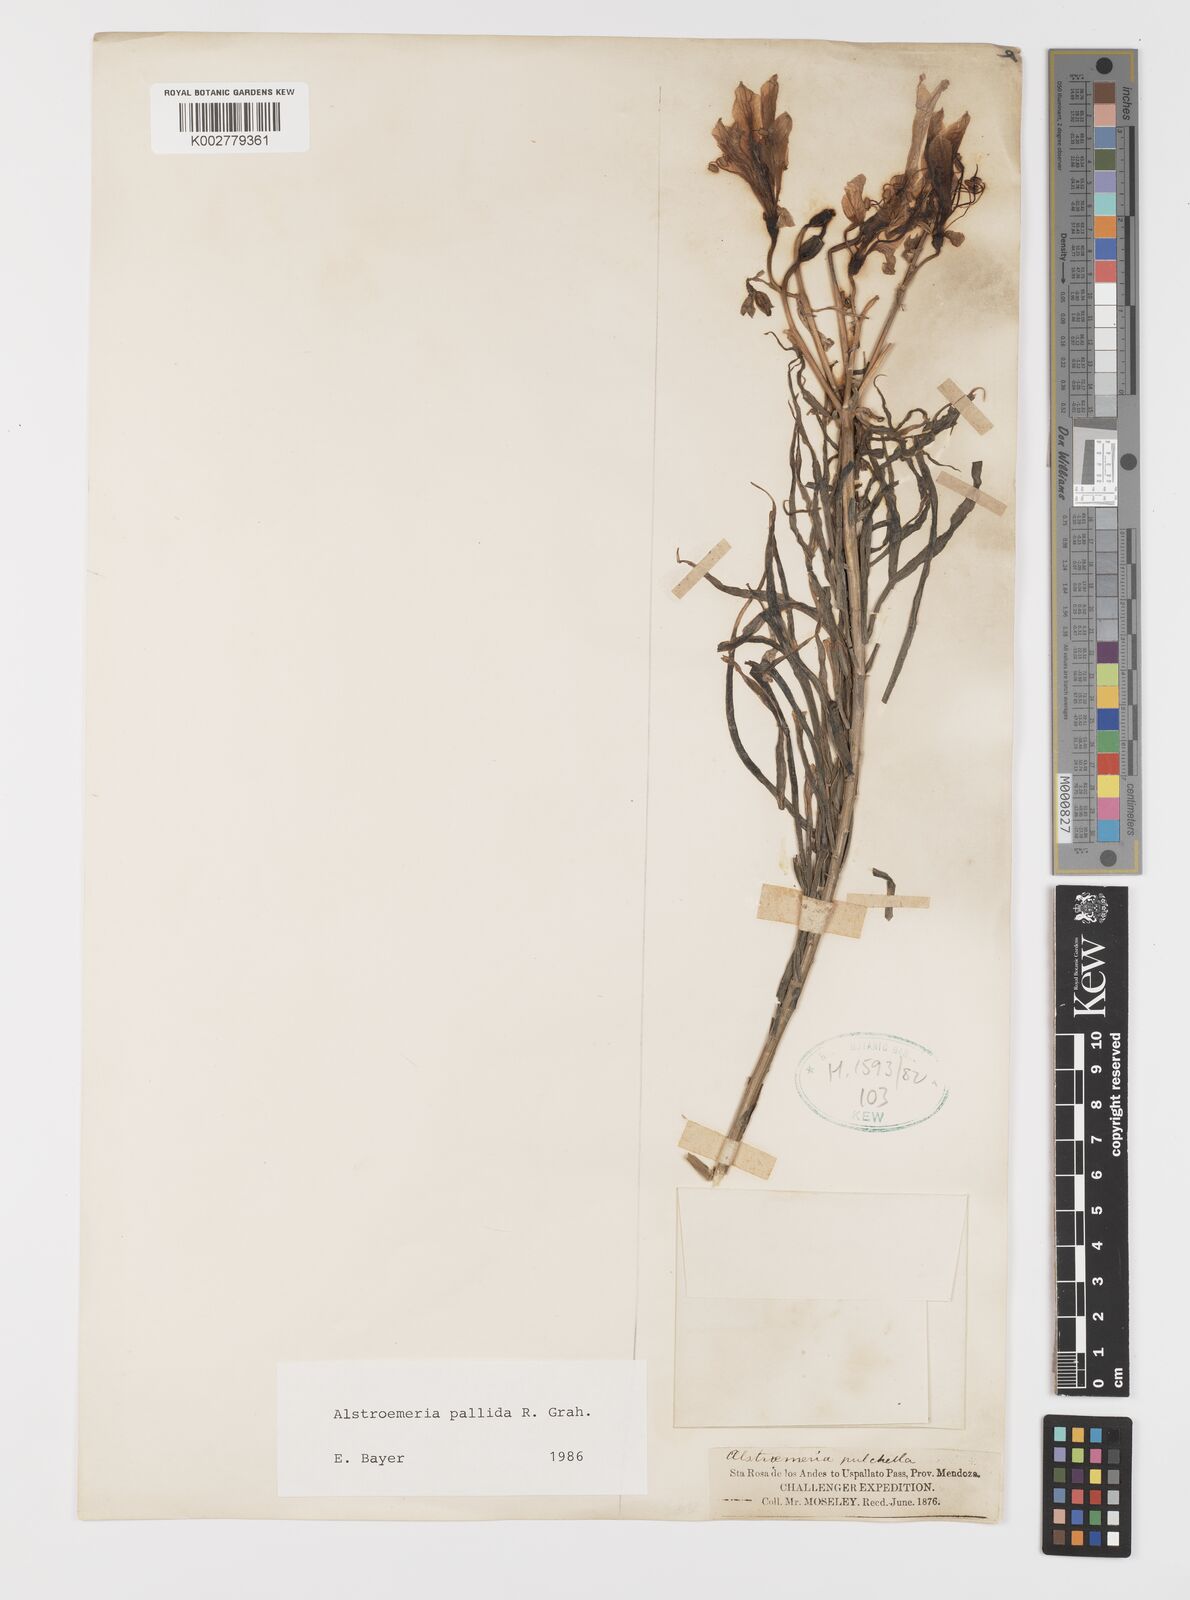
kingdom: Plantae
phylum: Tracheophyta
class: Liliopsida
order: Liliales
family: Alstroemeriaceae
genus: Alstroemeria
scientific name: Alstroemeria pallida
